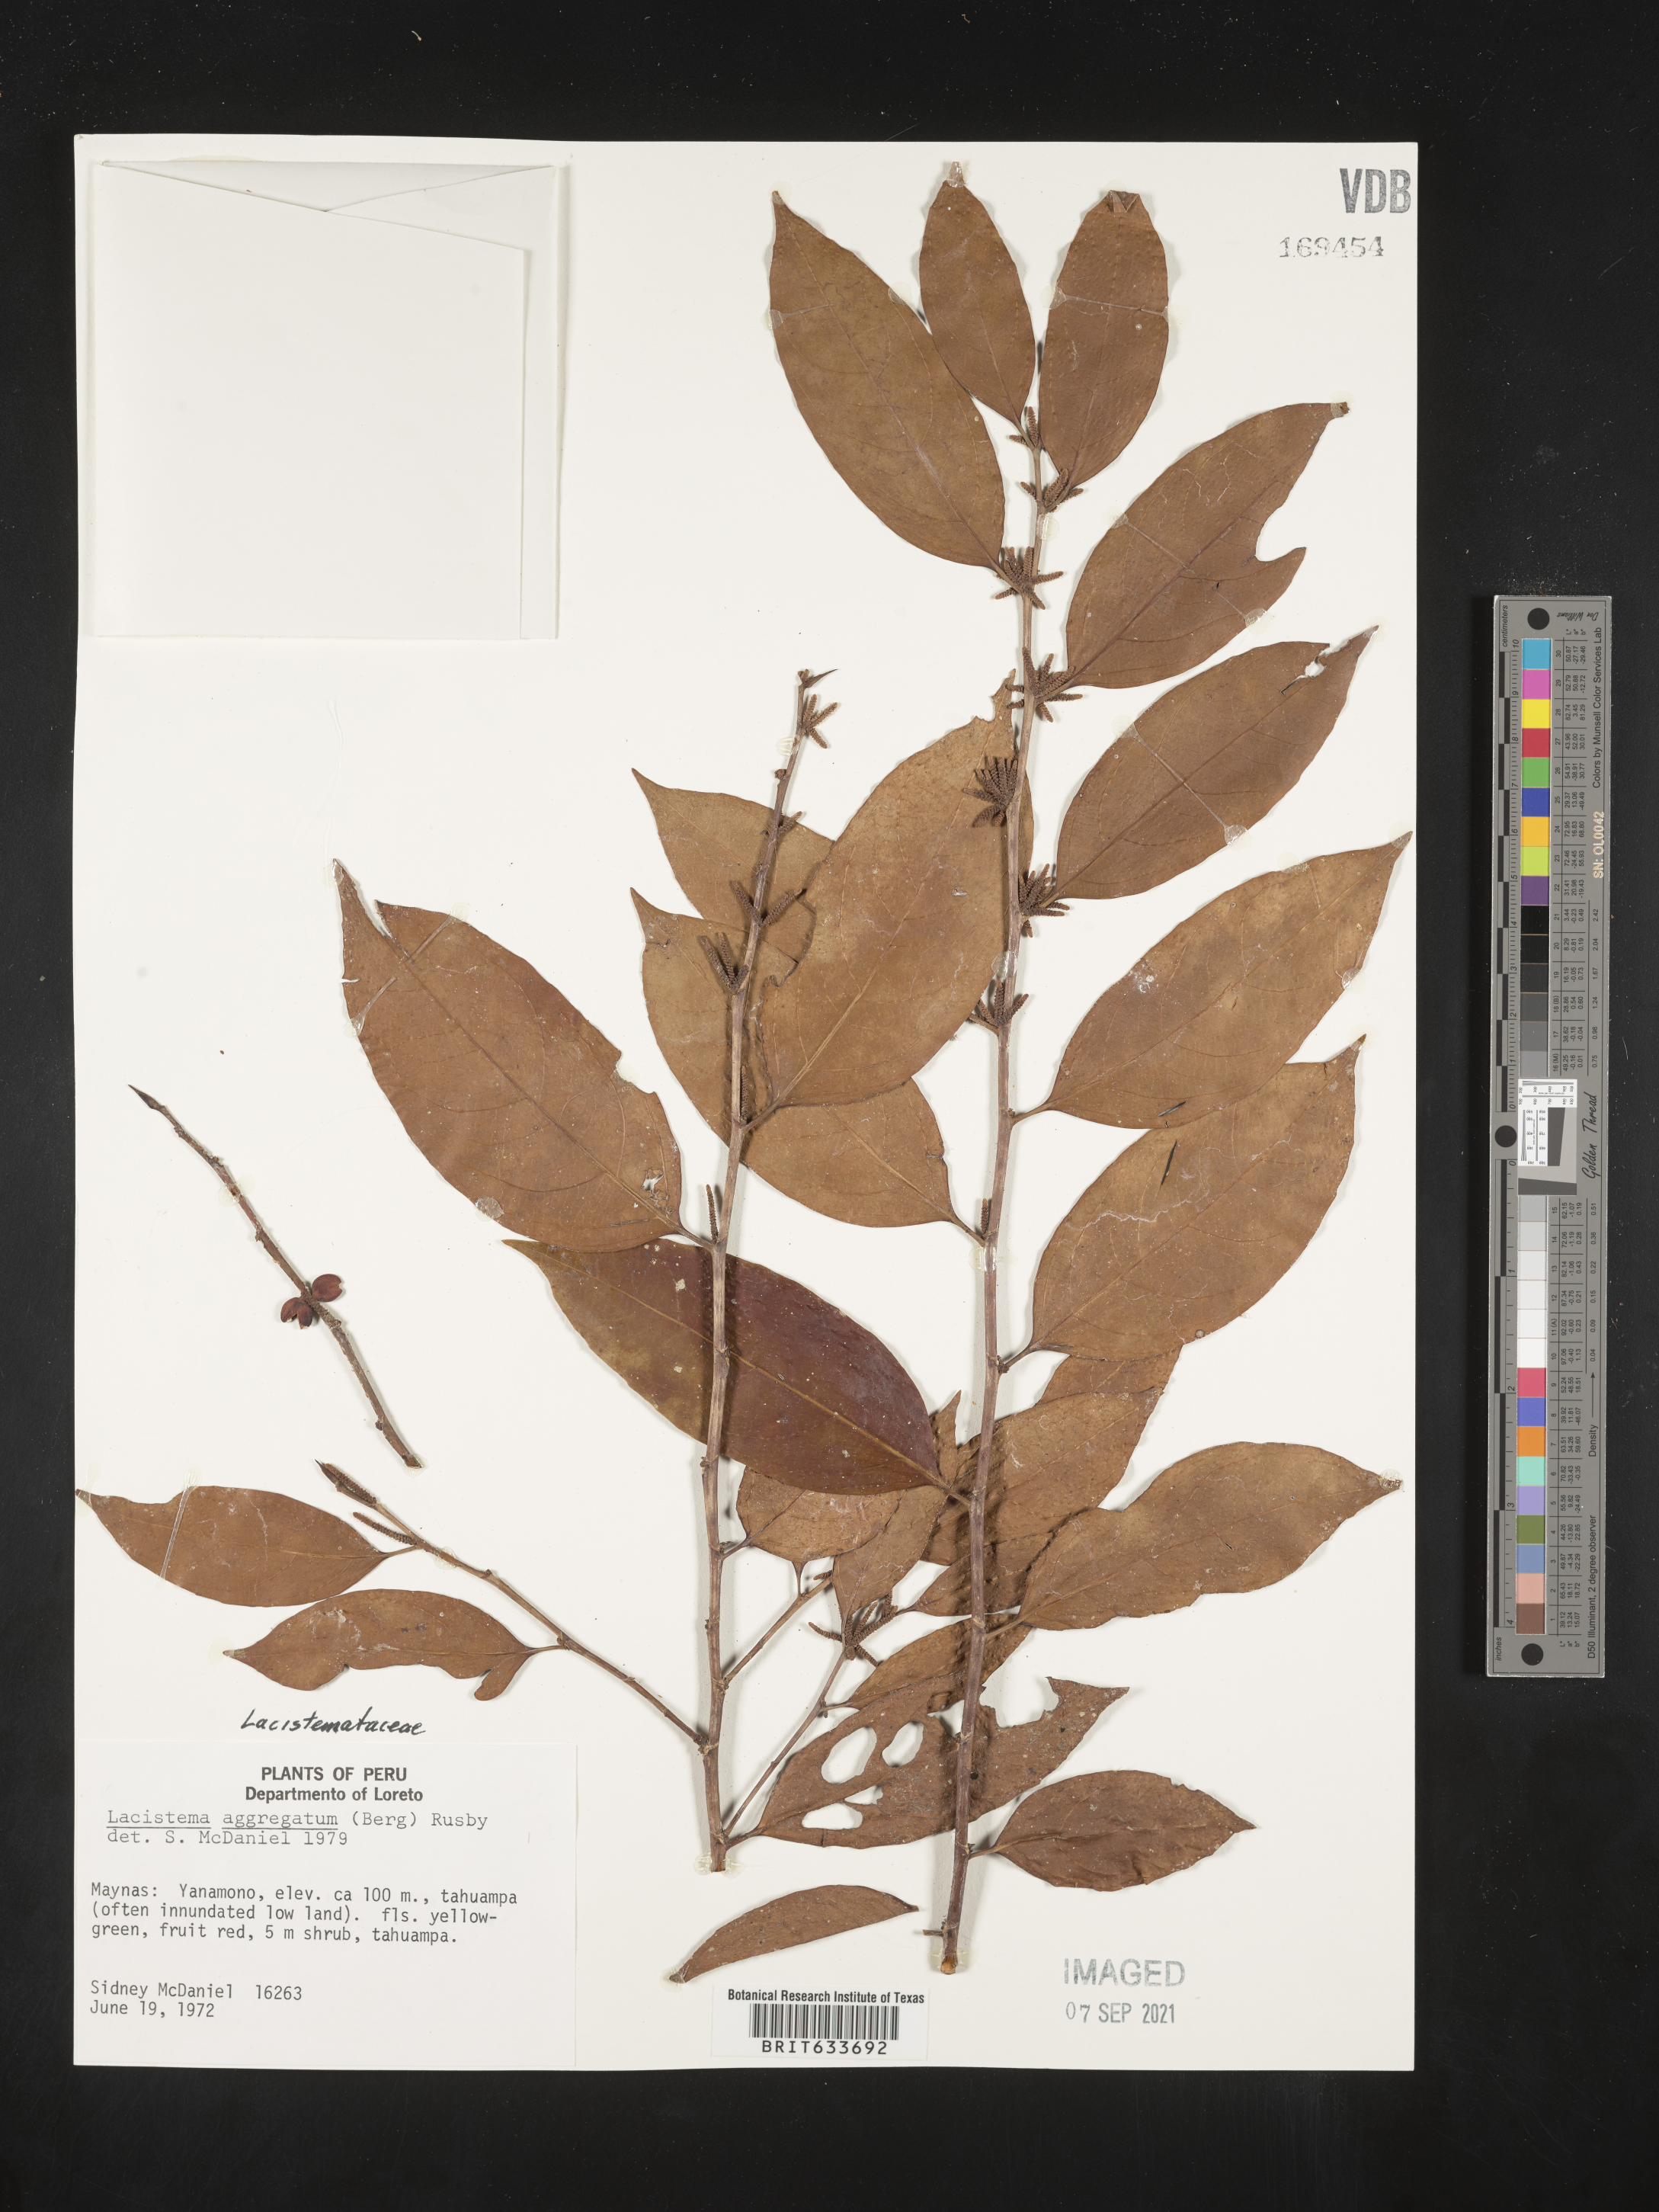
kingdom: Plantae
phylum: Tracheophyta
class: Magnoliopsida
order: Malpighiales
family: Lacistemataceae
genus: Lacistema
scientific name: Lacistema
